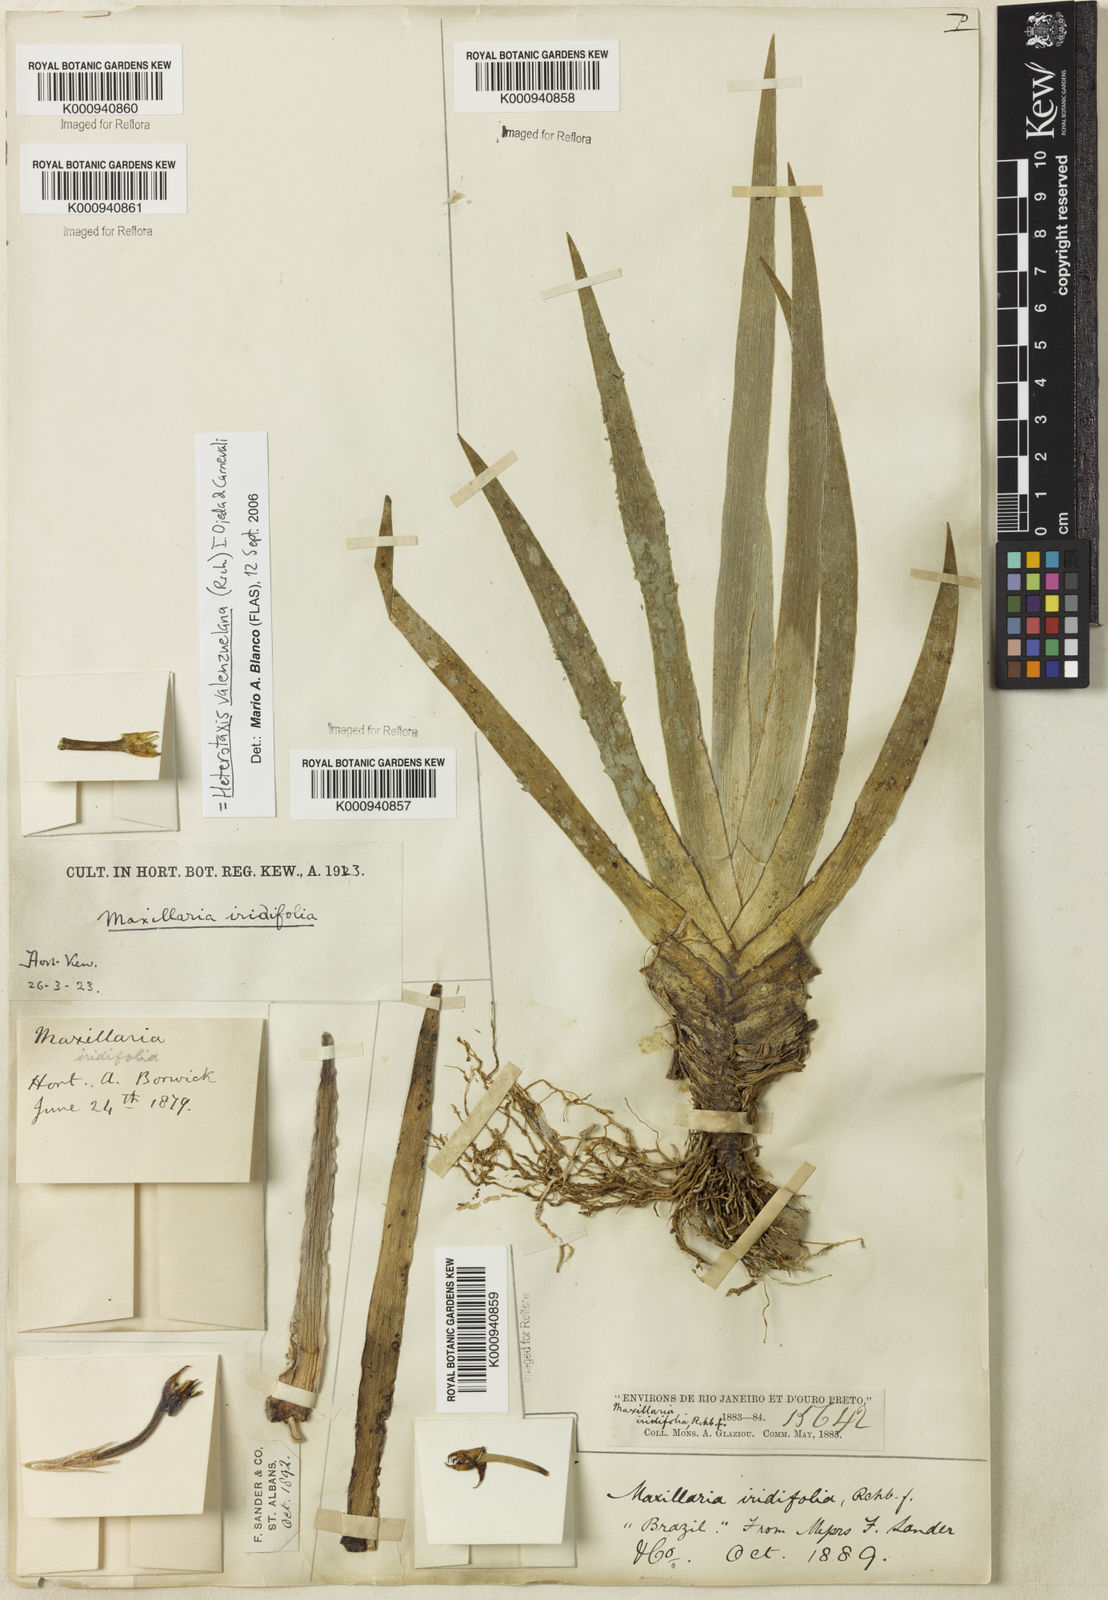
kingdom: Plantae
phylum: Tracheophyta
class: Liliopsida
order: Asparagales
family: Orchidaceae
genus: Maxillaria
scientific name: Maxillaria valenzuelana
